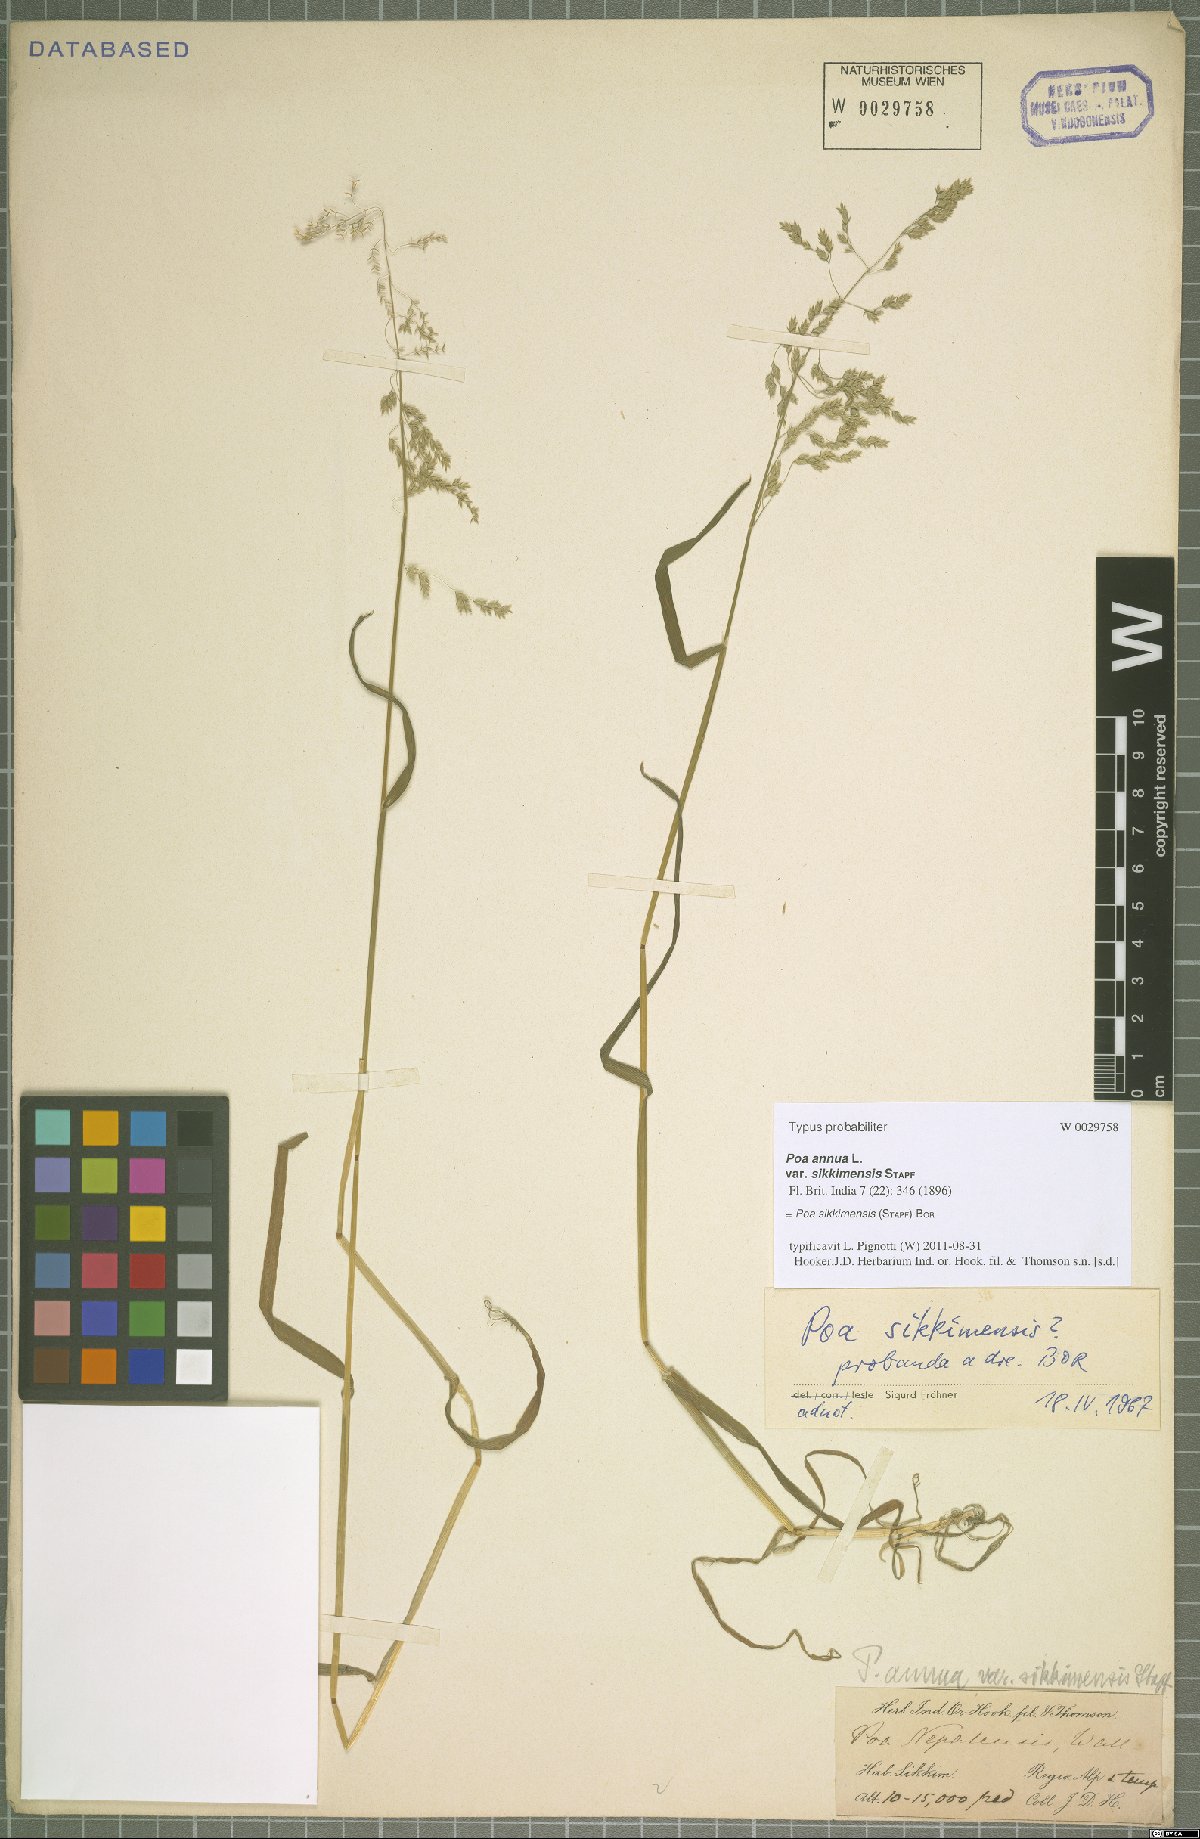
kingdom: Plantae
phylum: Tracheophyta
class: Liliopsida
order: Poales
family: Poaceae
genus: Poa
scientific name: Poa sikkimensis
